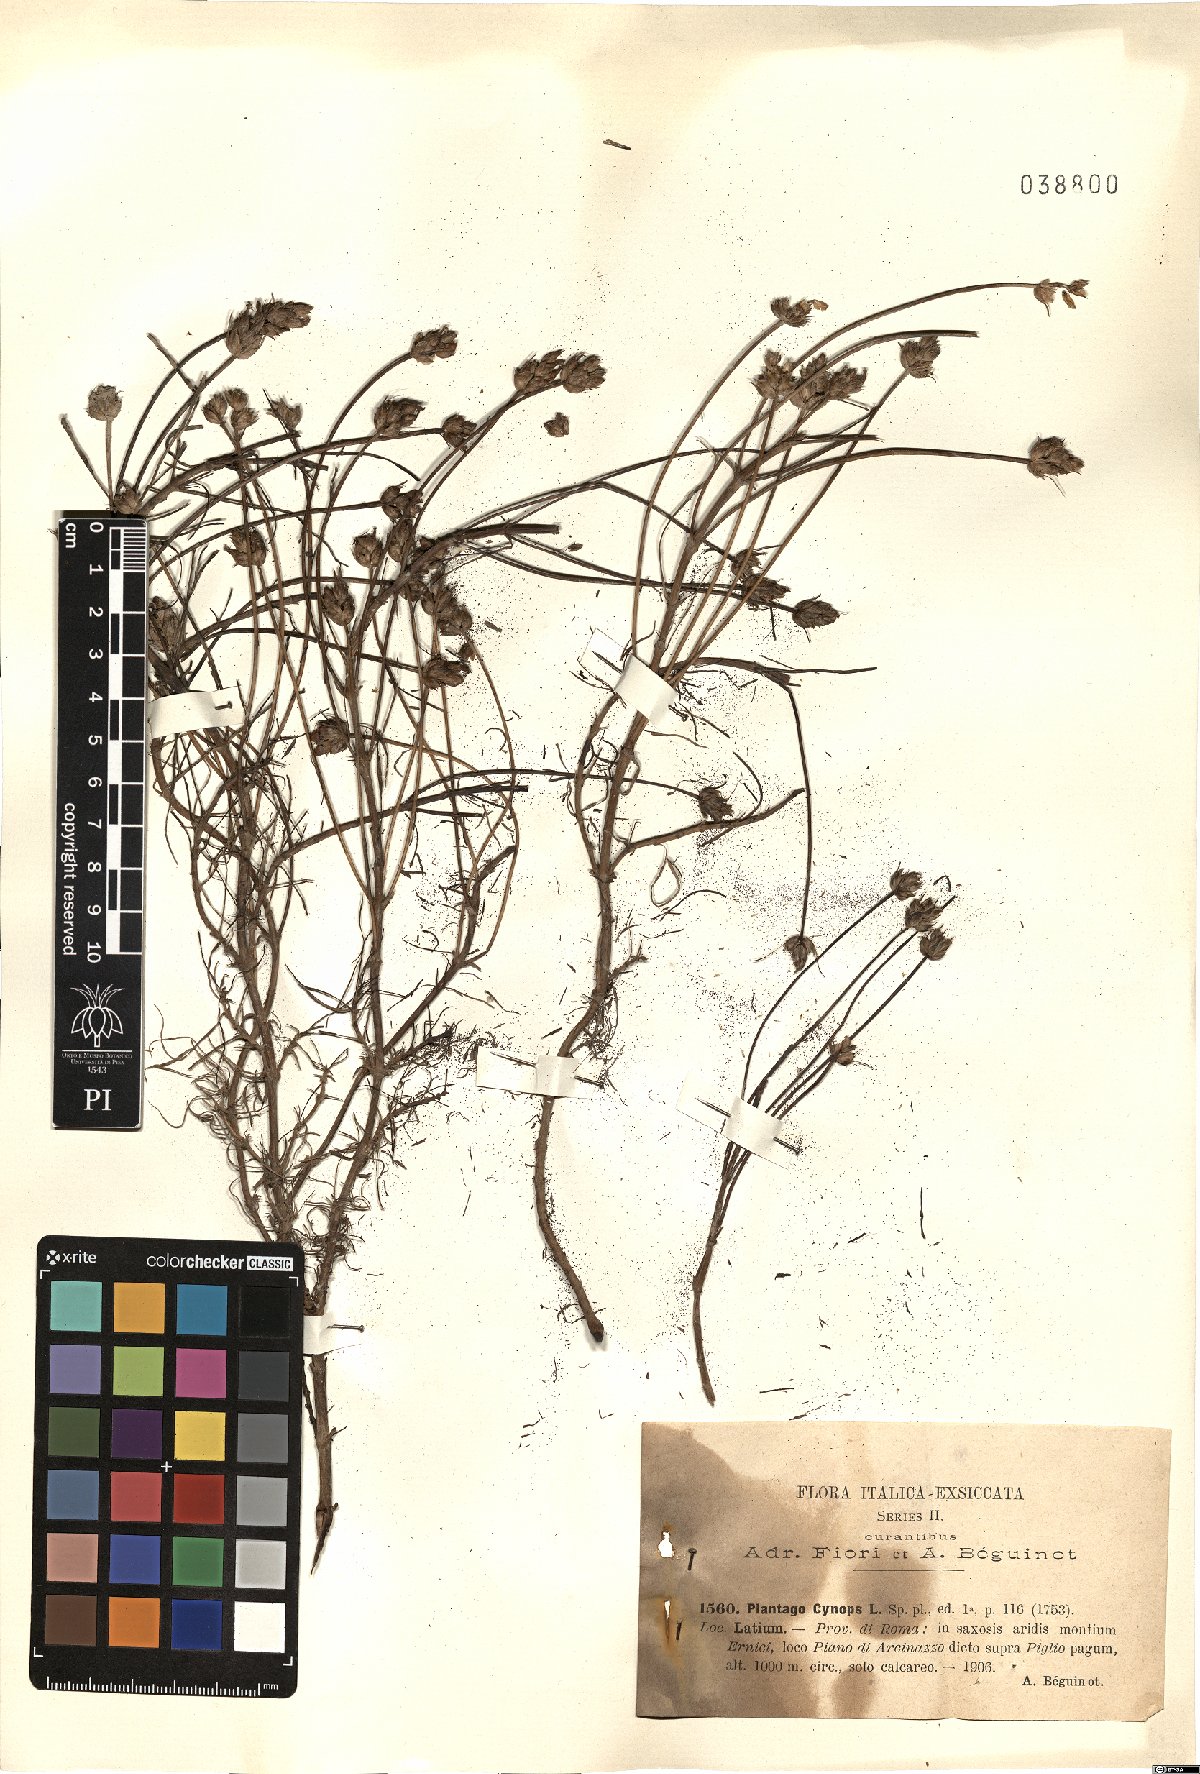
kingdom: Plantae
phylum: Tracheophyta
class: Magnoliopsida
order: Lamiales
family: Plantaginaceae
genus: Plantago
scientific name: Plantago sempervirens
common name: Shrubby plantain
